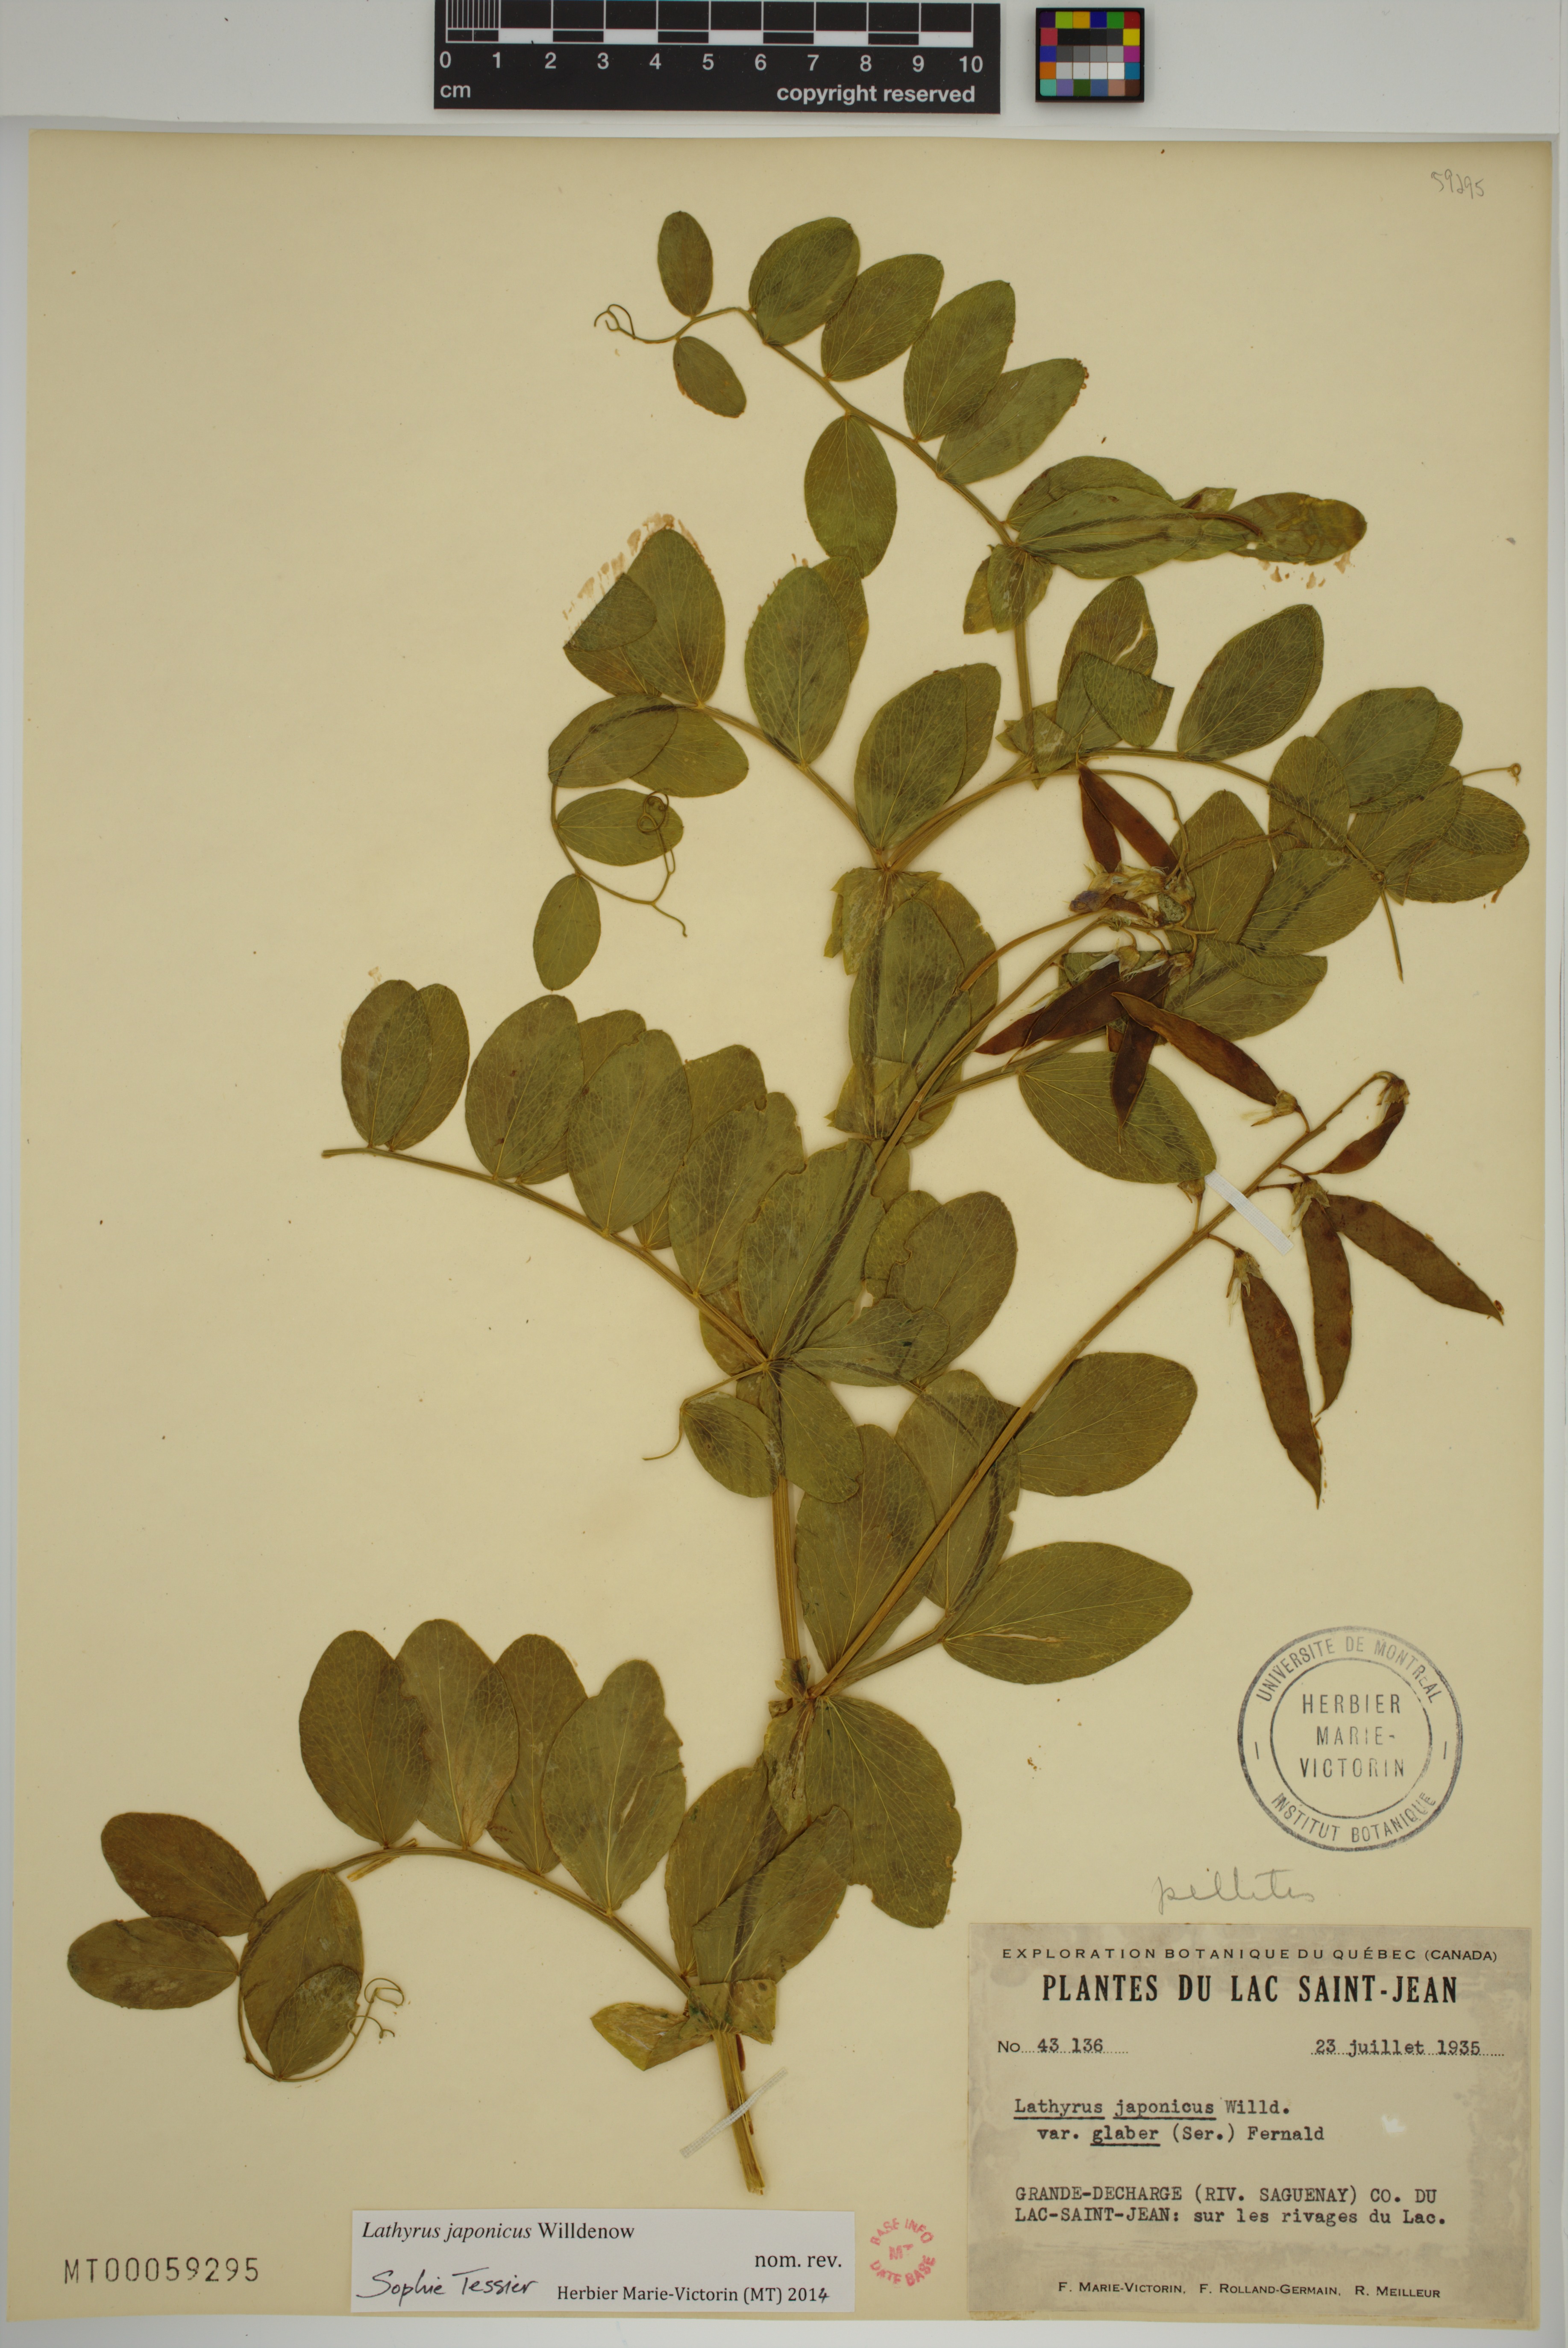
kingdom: Plantae
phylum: Tracheophyta
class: Magnoliopsida
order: Fabales
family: Fabaceae
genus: Lathyrus
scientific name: Lathyrus japonicus
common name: Sea pea
